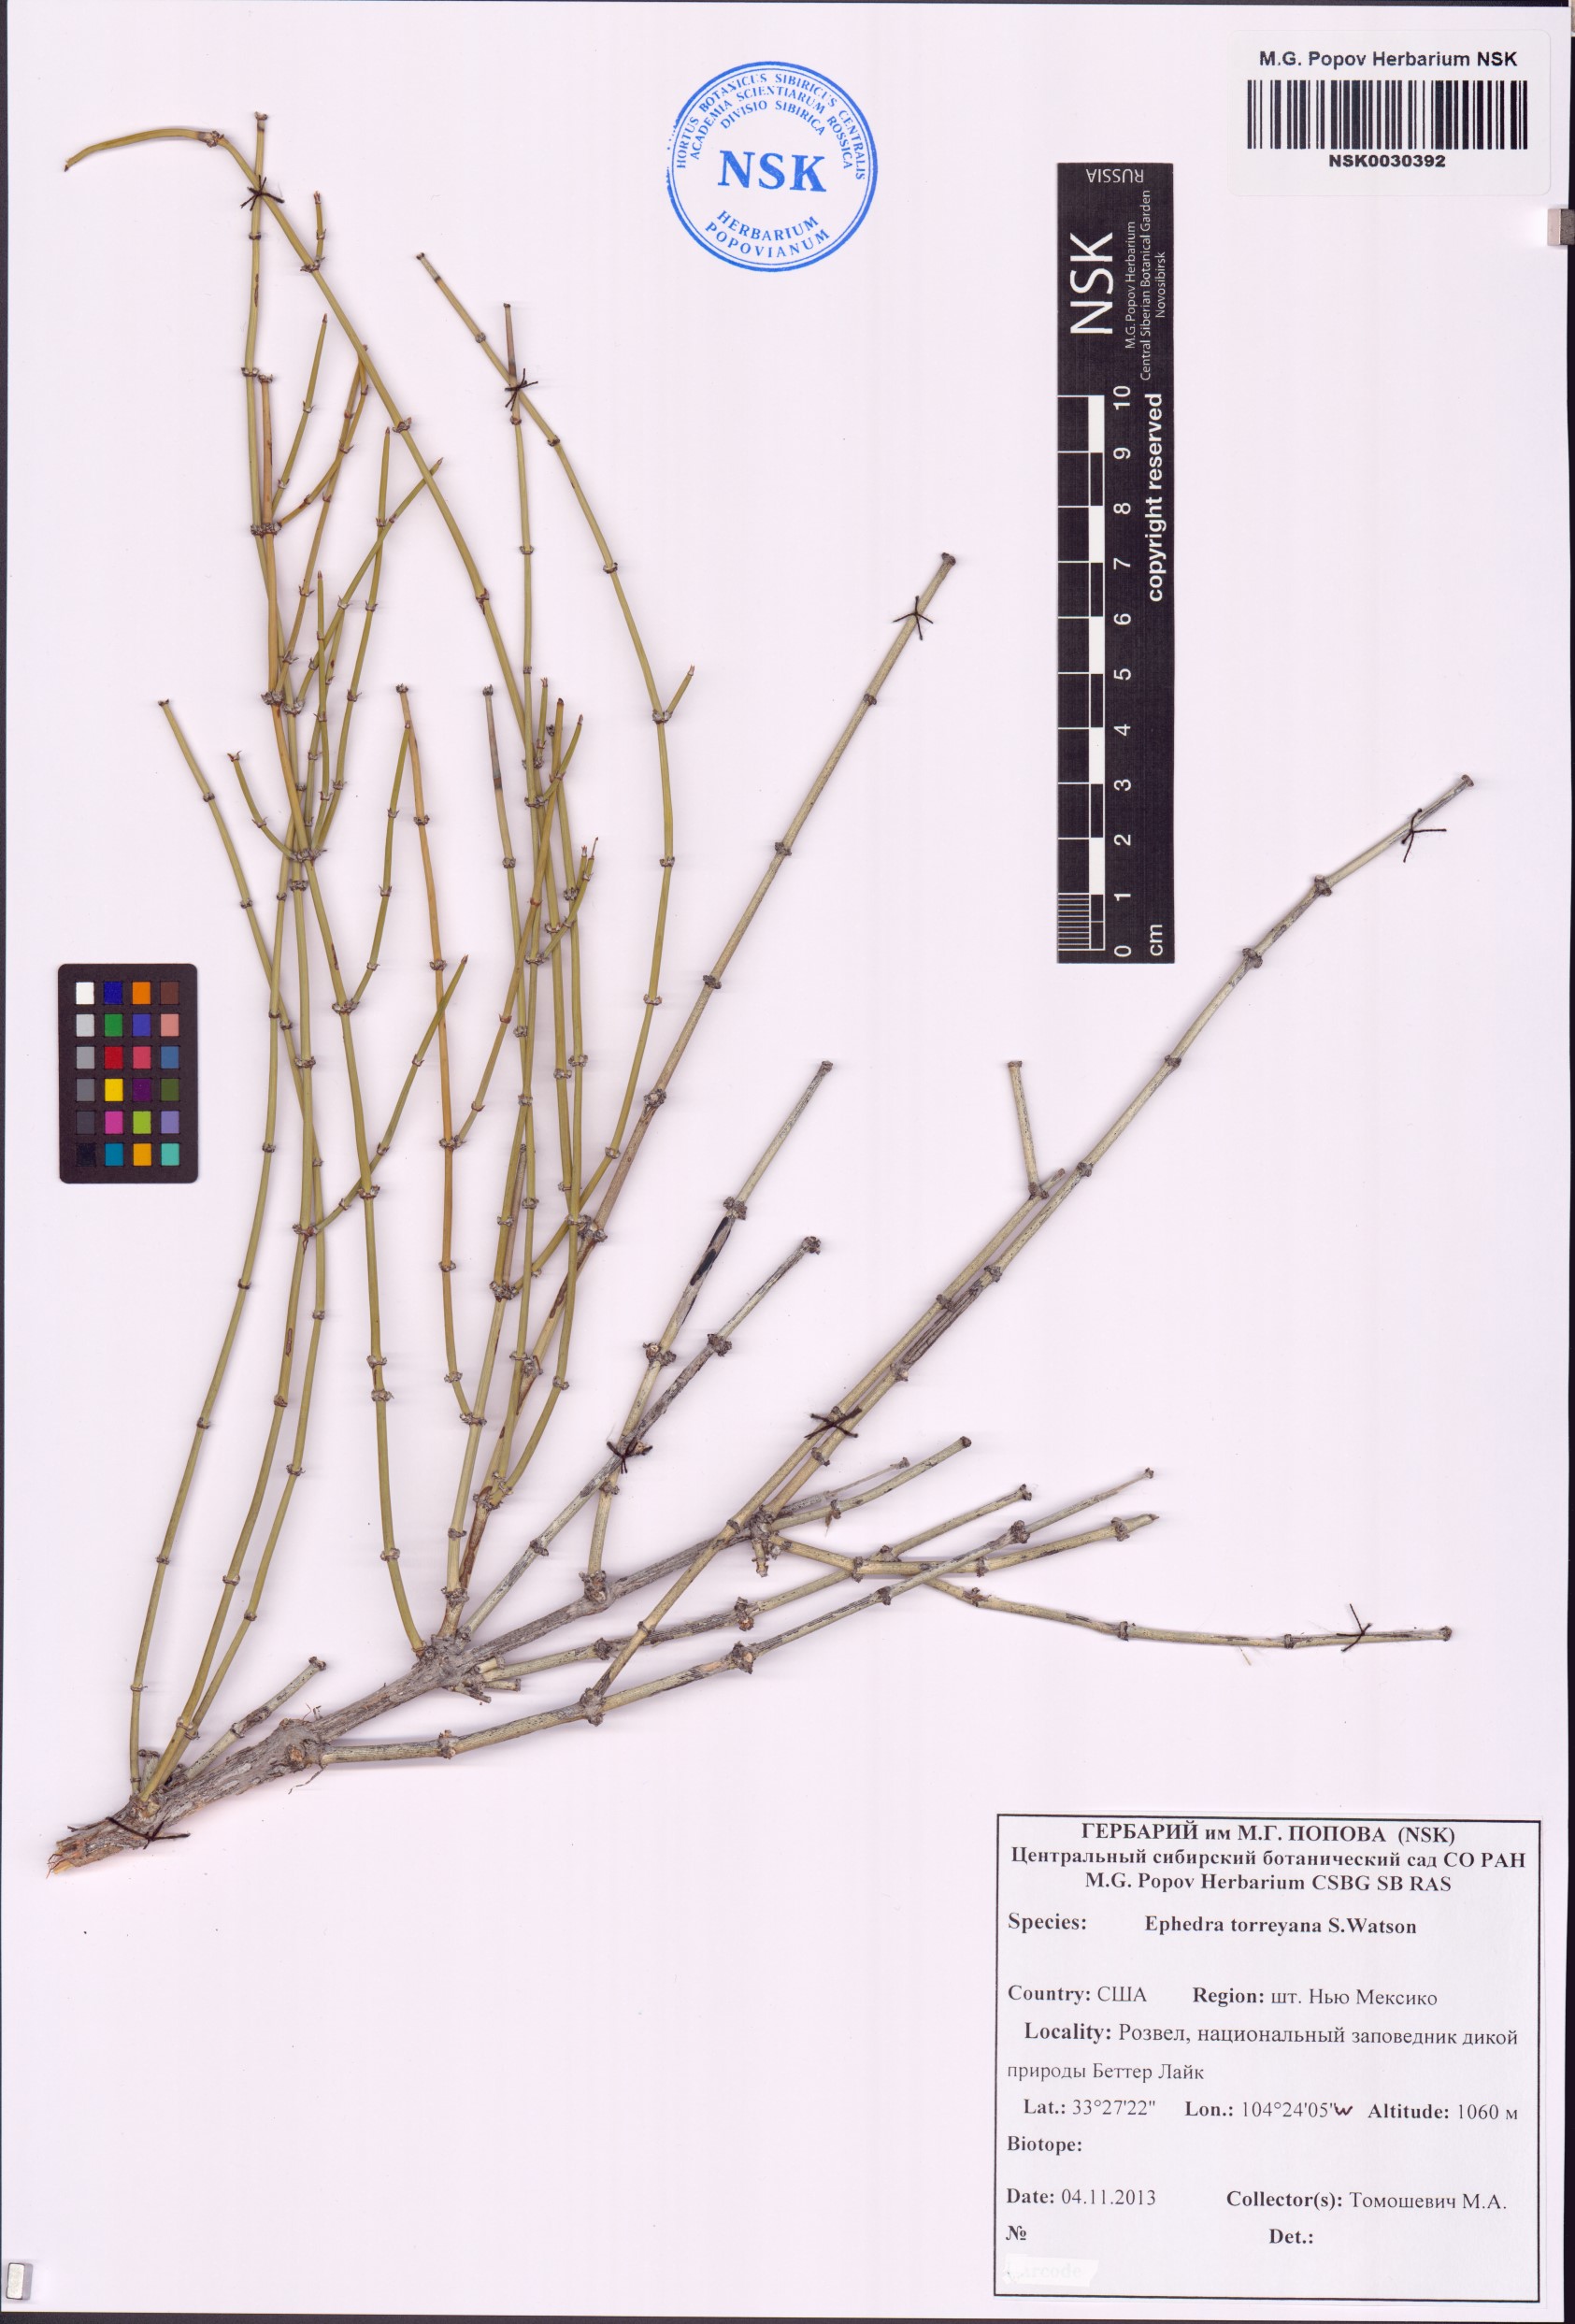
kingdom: Plantae
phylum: Tracheophyta
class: Gnetopsida
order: Ephedrales
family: Ephedraceae
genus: Ephedra
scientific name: Ephedra torreyana
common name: Torrey ephedra
